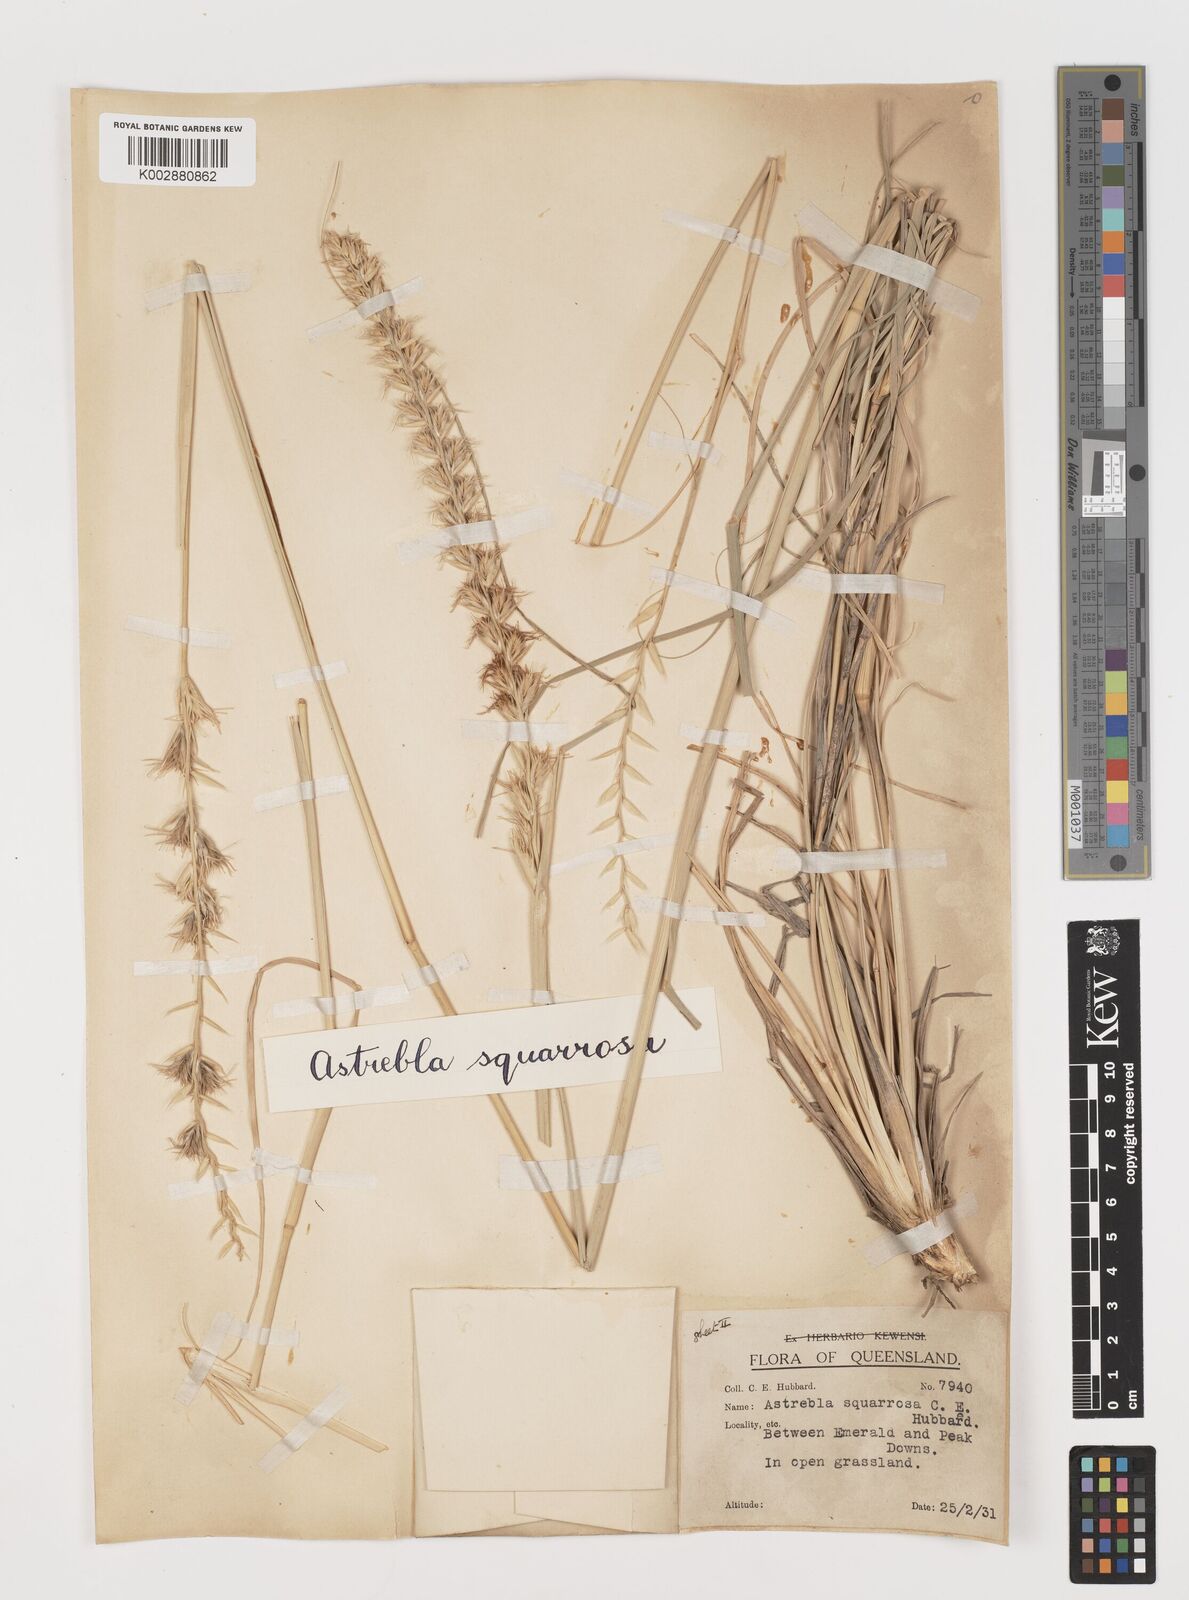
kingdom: Plantae
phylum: Tracheophyta
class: Liliopsida
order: Poales
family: Poaceae
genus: Astrebla
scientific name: Astrebla squarrosa
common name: Wheat-ear mitchell grass
